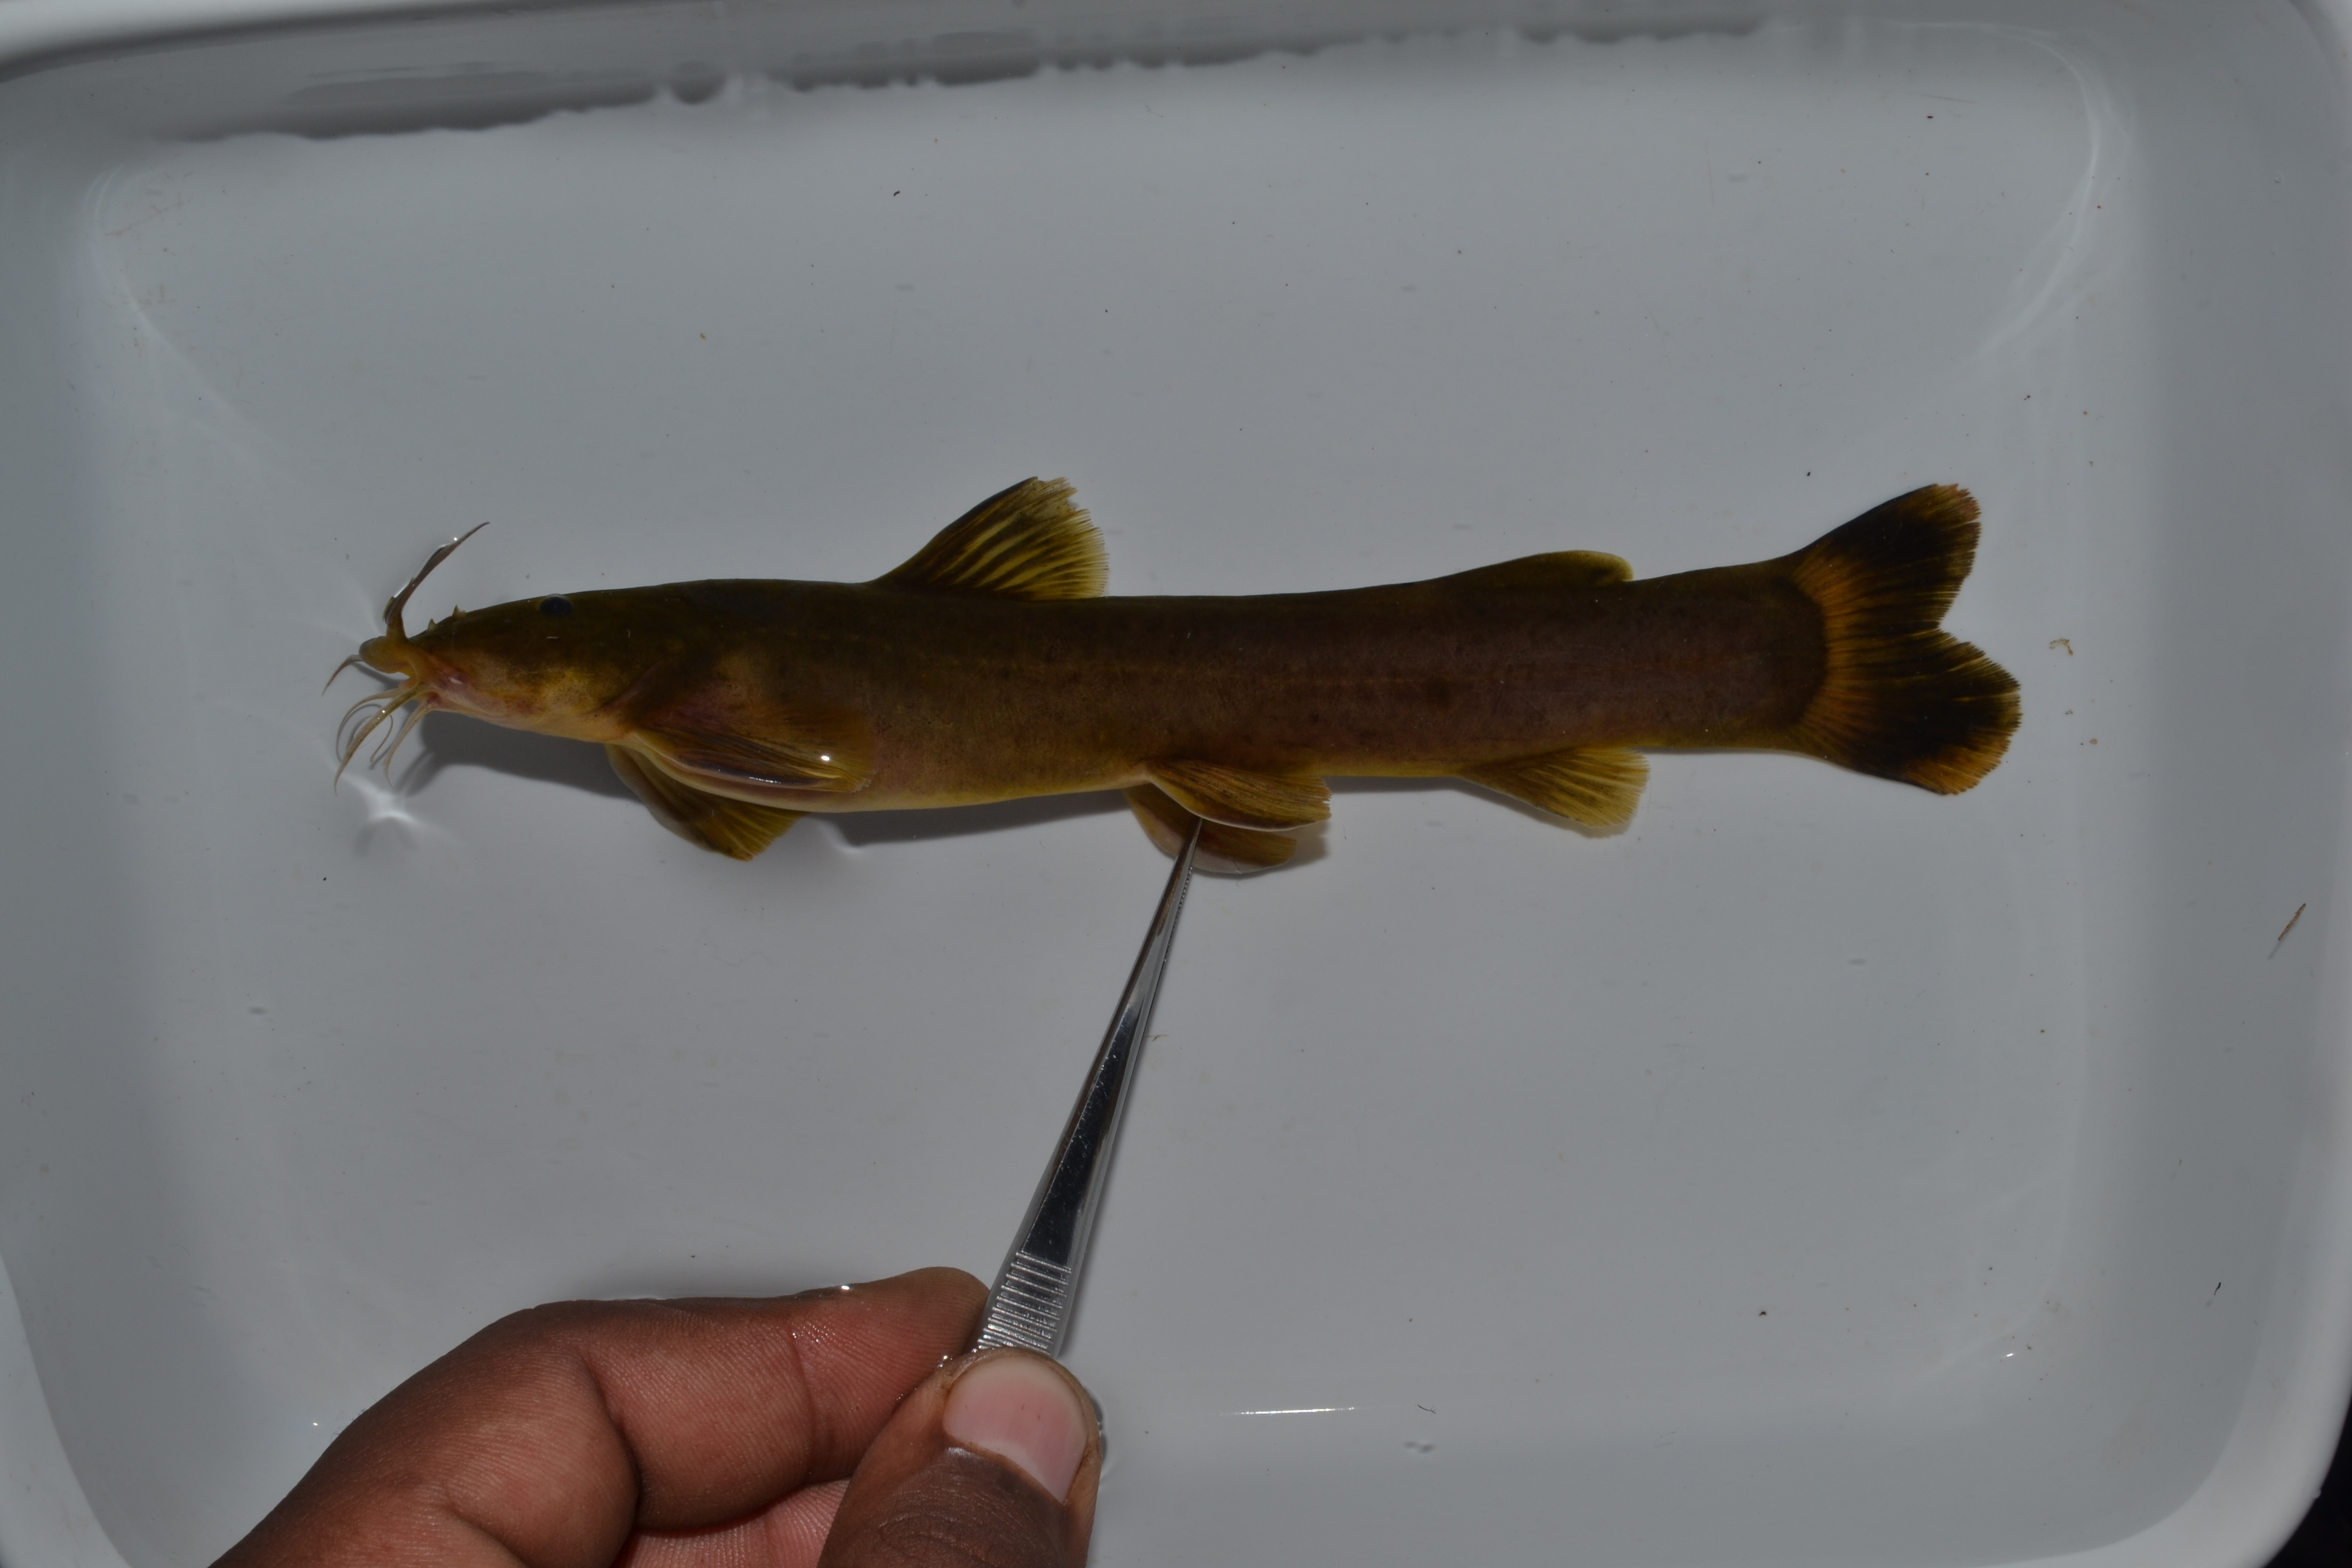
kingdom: Animalia
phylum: Chordata
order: Siluriformes
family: Amphiliidae
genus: Amphilius
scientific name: Amphilius uranoscopus
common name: Stargazer mountain catfish
